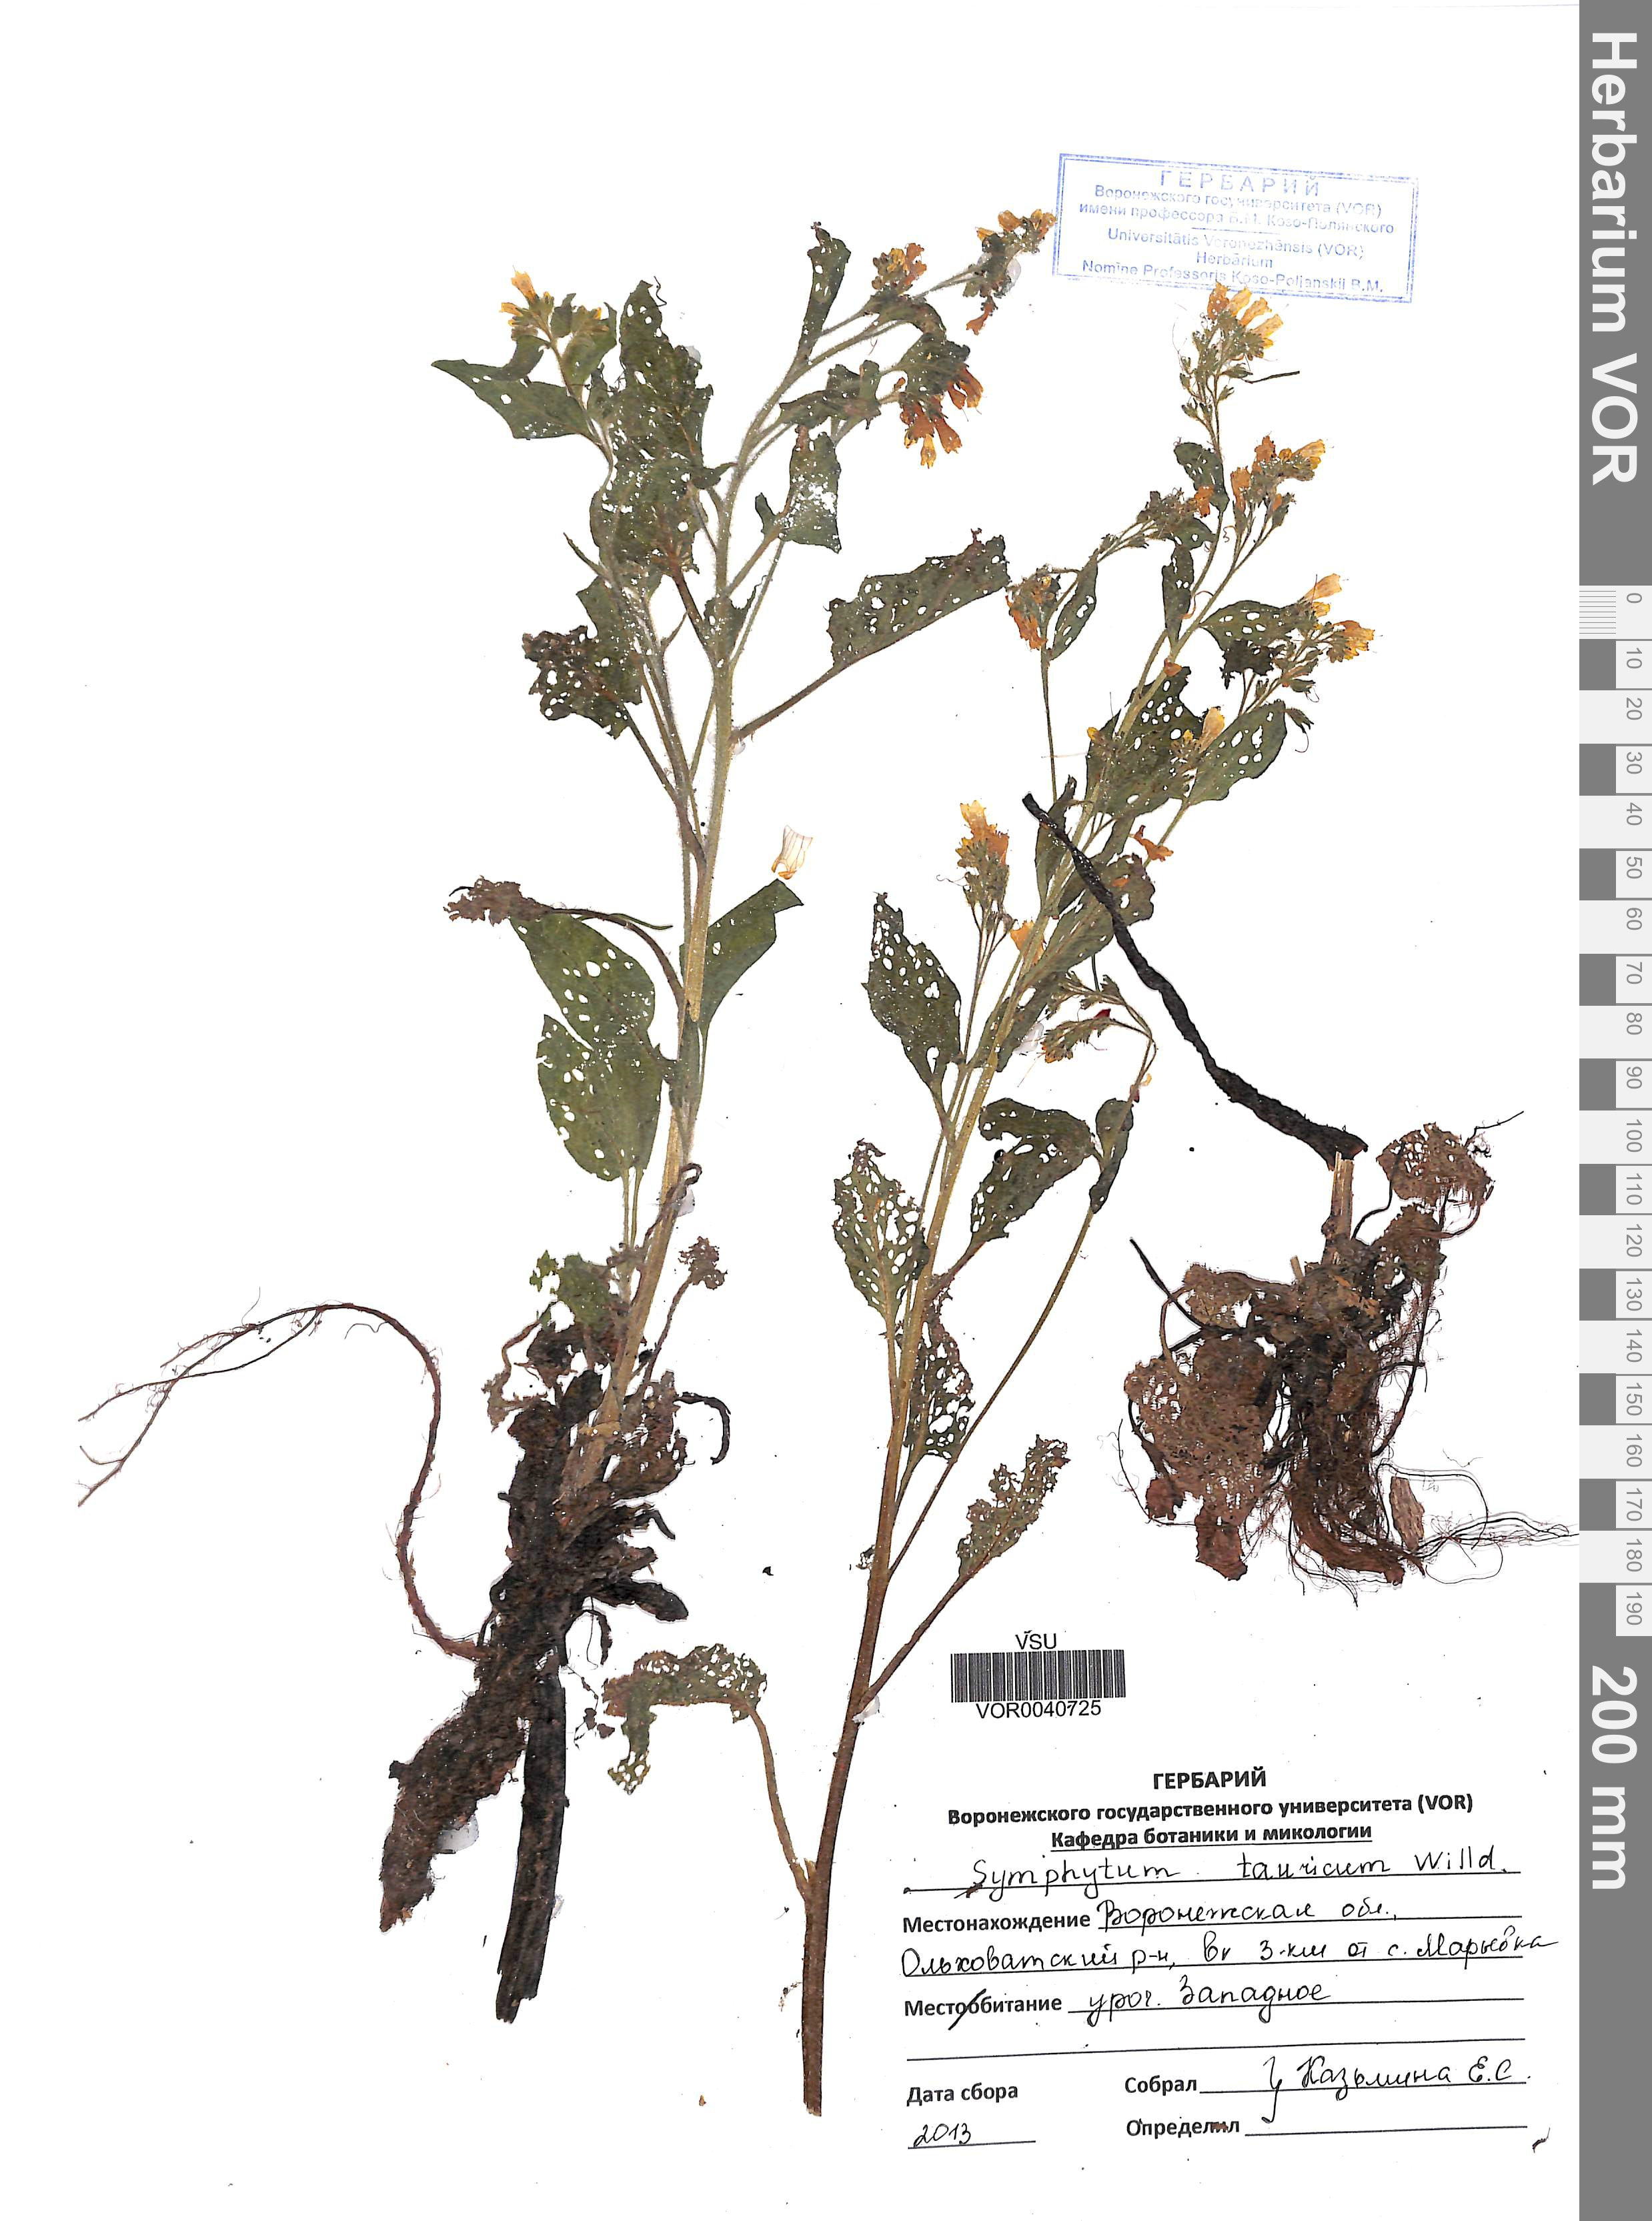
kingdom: Plantae
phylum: Tracheophyta
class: Magnoliopsida
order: Boraginales
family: Boraginaceae
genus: Symphytum
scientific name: Symphytum tauricum
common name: Crimean comfrey
